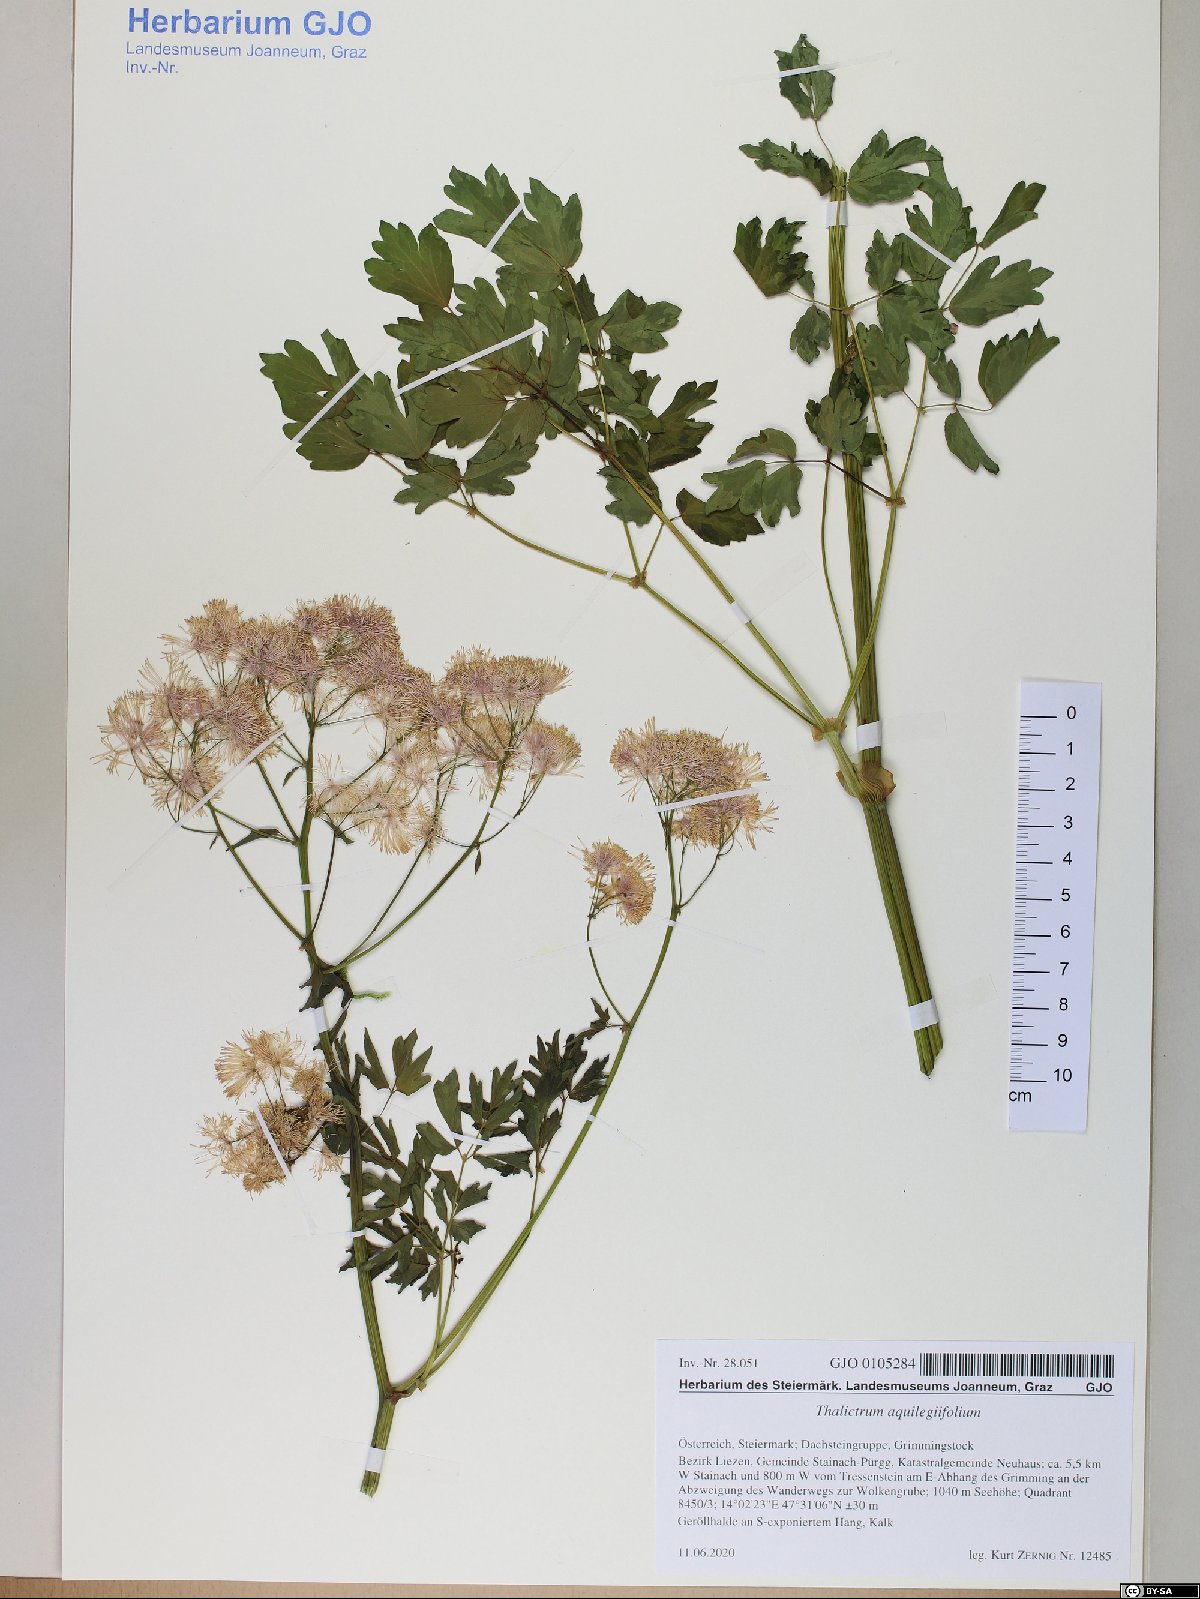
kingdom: Plantae
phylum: Tracheophyta
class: Magnoliopsida
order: Ranunculales
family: Ranunculaceae
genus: Thalictrum
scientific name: Thalictrum aquilegiifolium
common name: French meadow-rue
